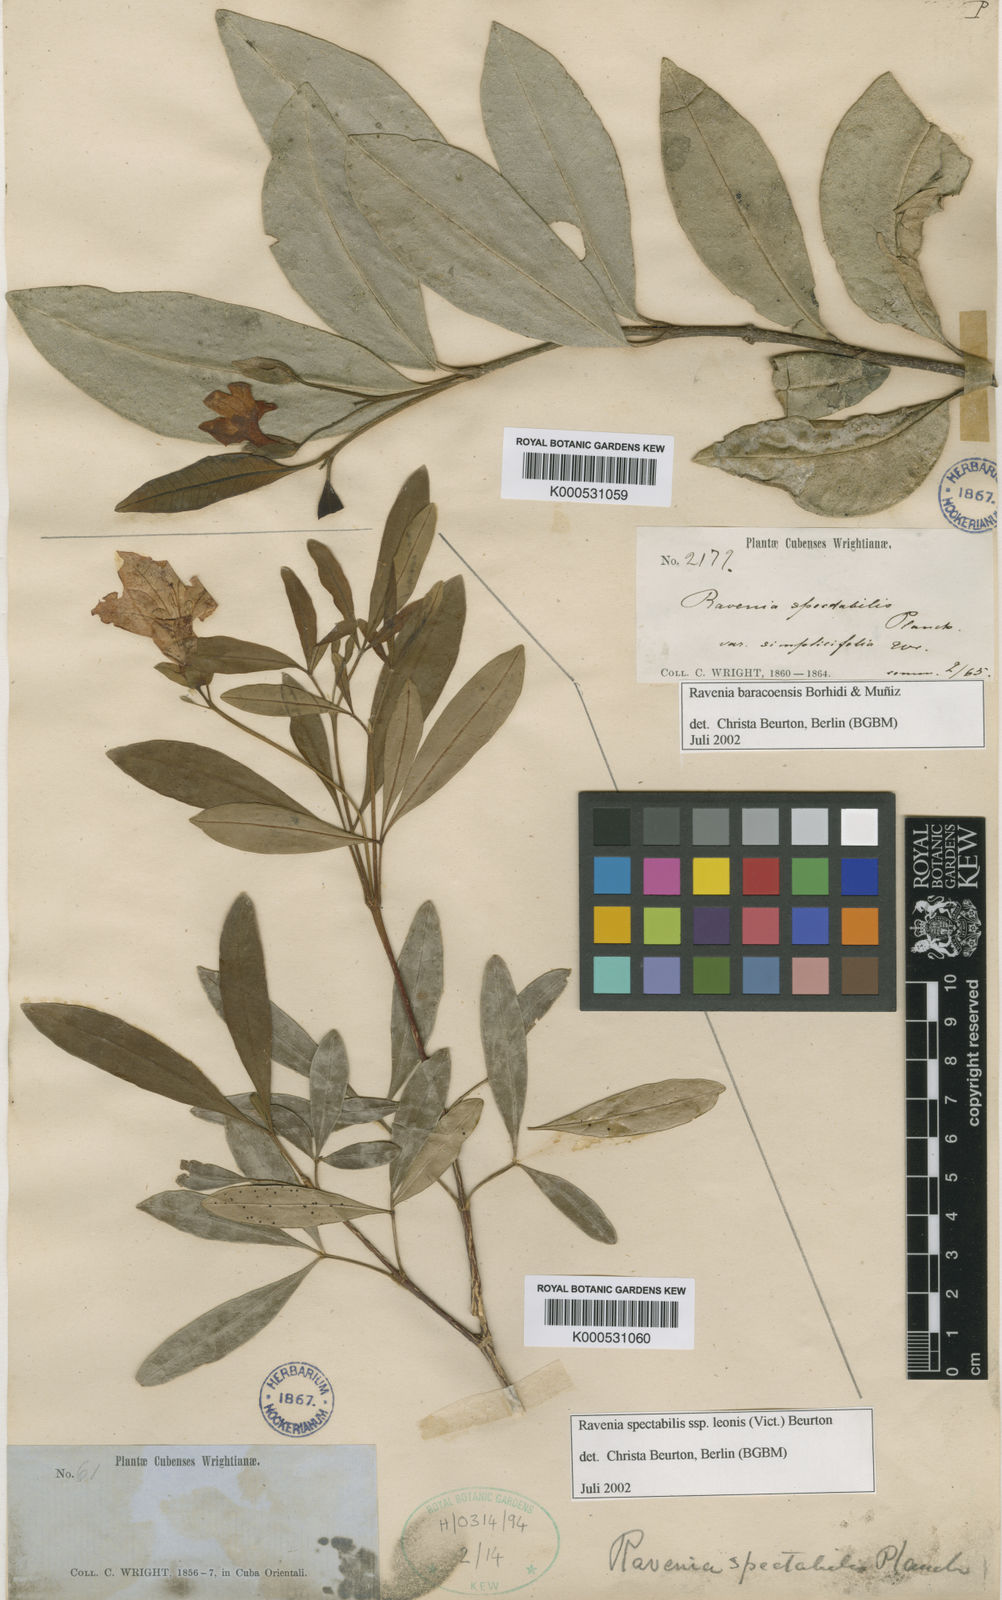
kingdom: Plantae
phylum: Tracheophyta
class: Magnoliopsida
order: Sapindales
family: Rutaceae
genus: Ravenia
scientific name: Ravenia
